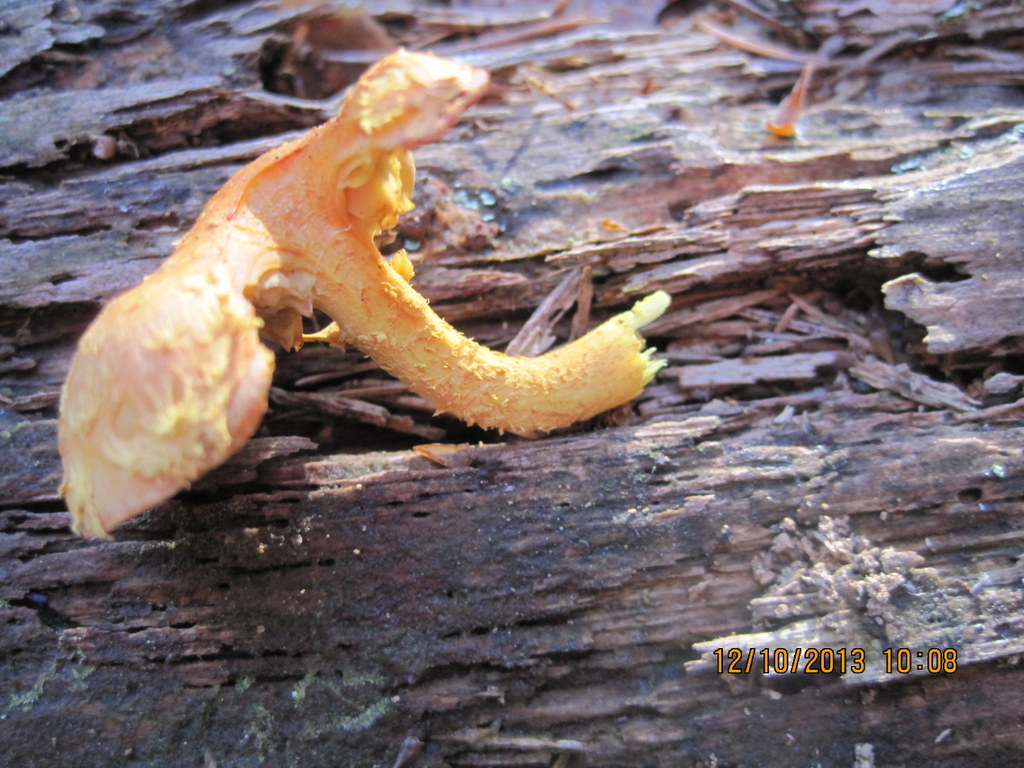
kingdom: Fungi
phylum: Basidiomycota
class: Agaricomycetes
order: Agaricales
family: Strophariaceae
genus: Pholiota
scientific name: Pholiota flammans
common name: flamme-skælhat
